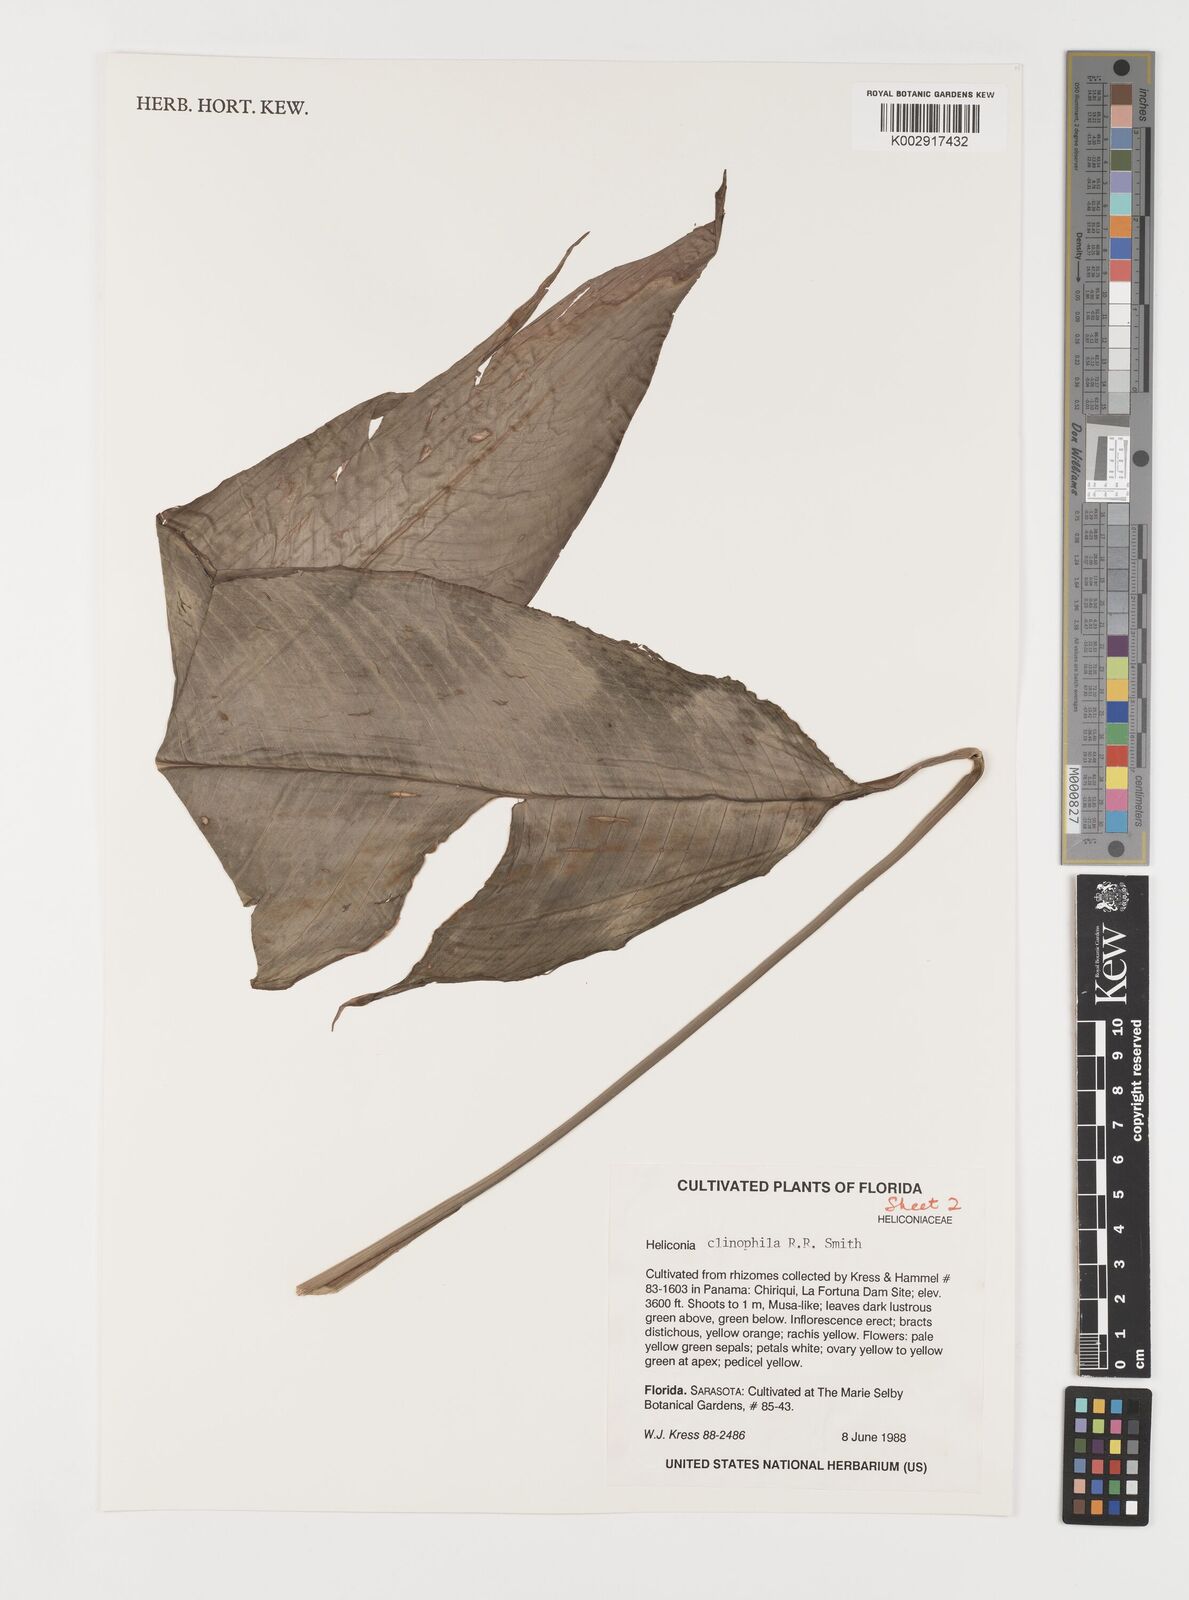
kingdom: Plantae
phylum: Tracheophyta
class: Liliopsida
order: Zingiberales
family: Heliconiaceae
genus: Heliconia
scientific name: Heliconia clinophila
